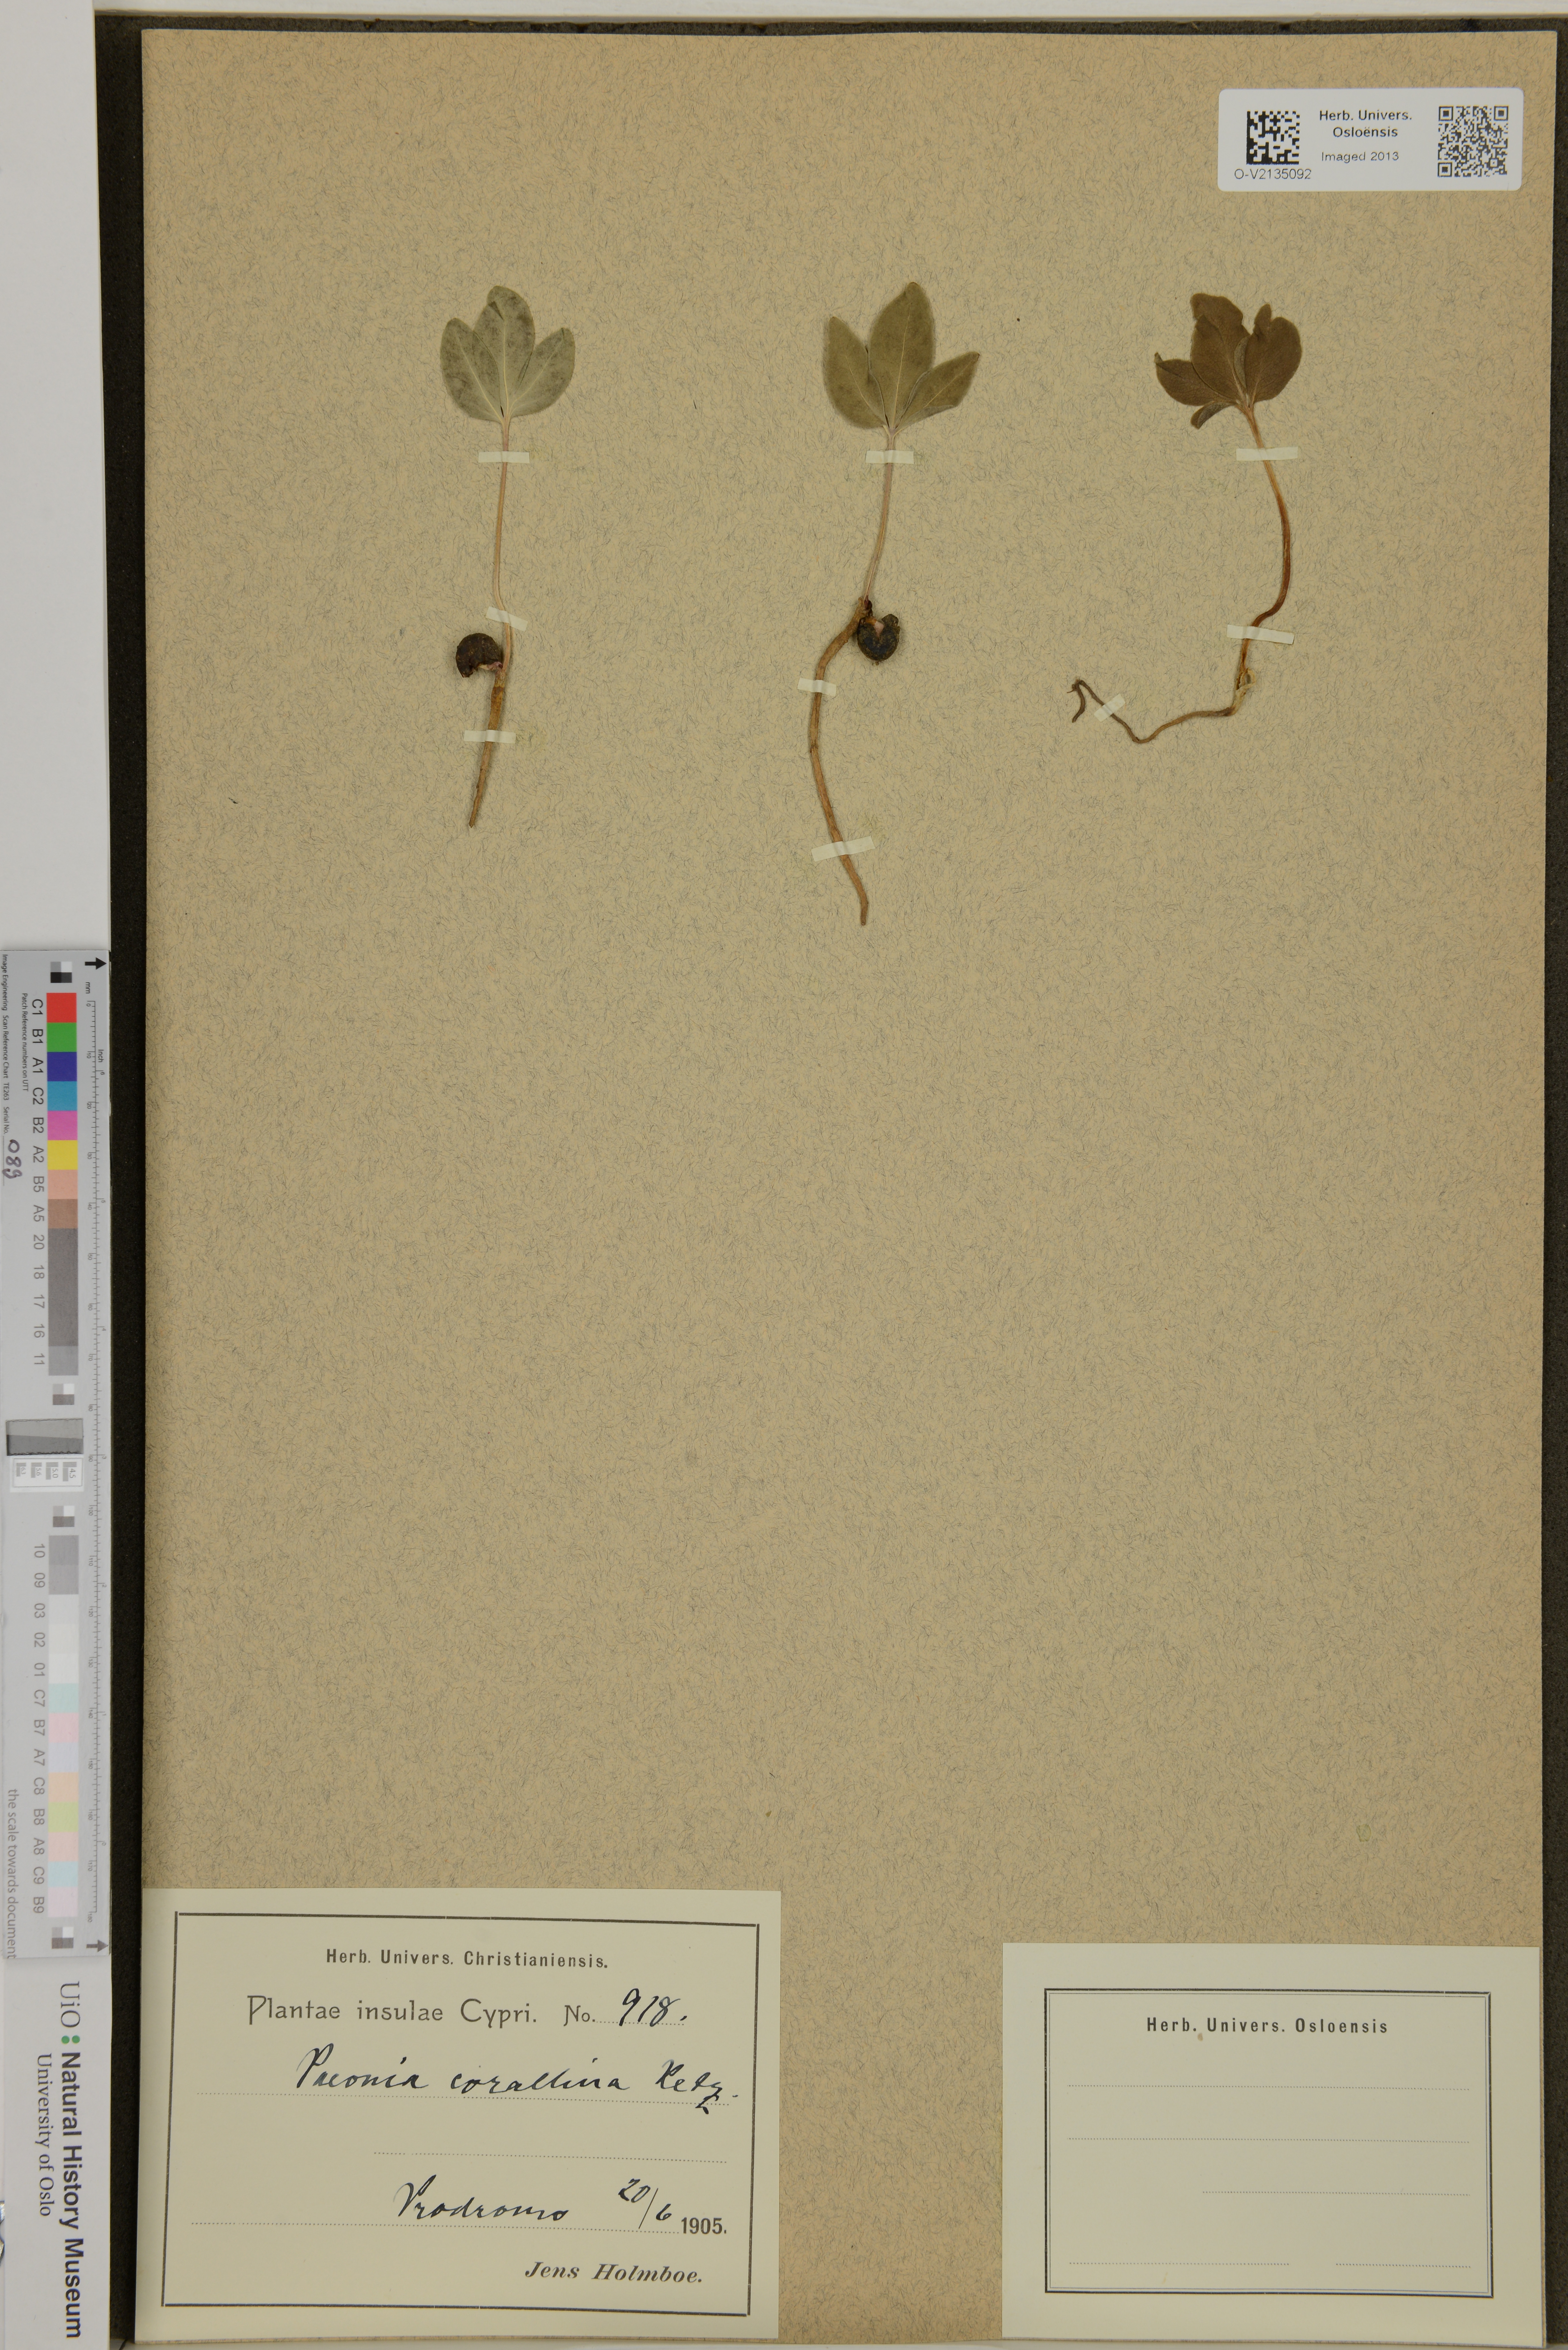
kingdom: Plantae
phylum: Tracheophyta
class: Magnoliopsida
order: Saxifragales
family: Paeoniaceae
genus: Paeonia
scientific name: Paeonia mascula
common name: Peony
